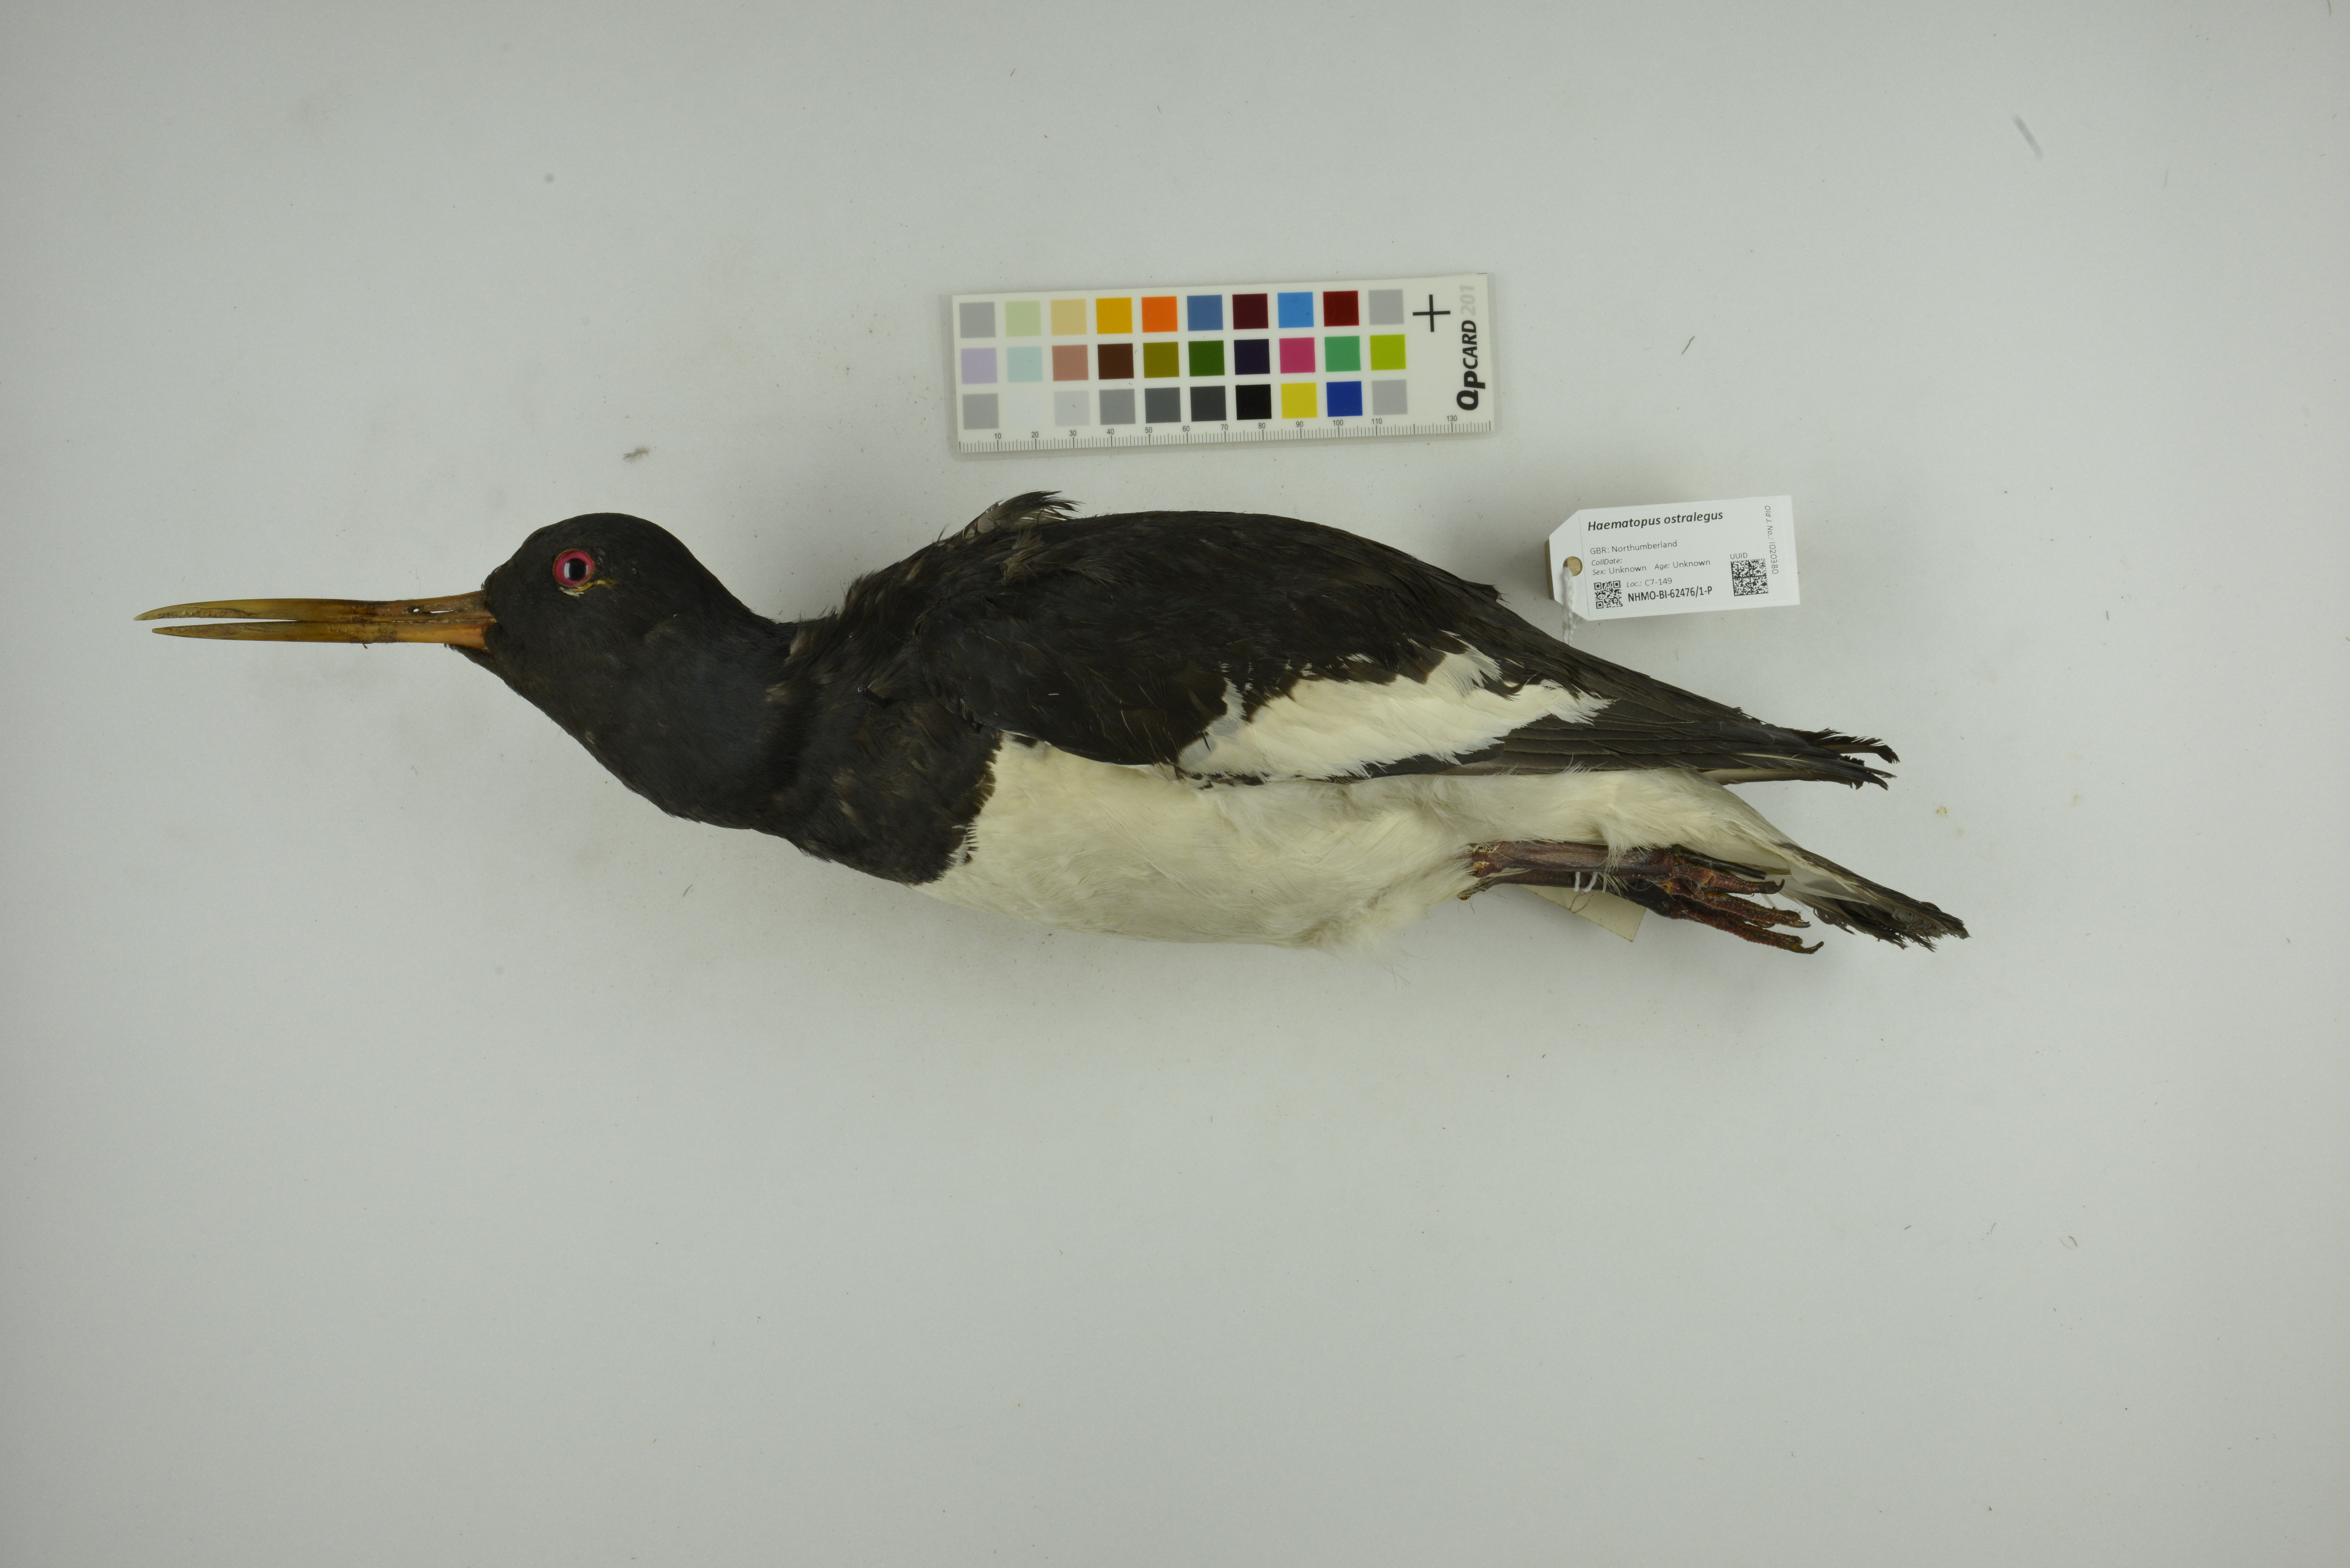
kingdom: Animalia
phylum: Chordata
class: Aves
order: Charadriiformes
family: Haematopodidae
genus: Haematopus
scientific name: Haematopus ostralegus
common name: Eurasian oystercatcher
